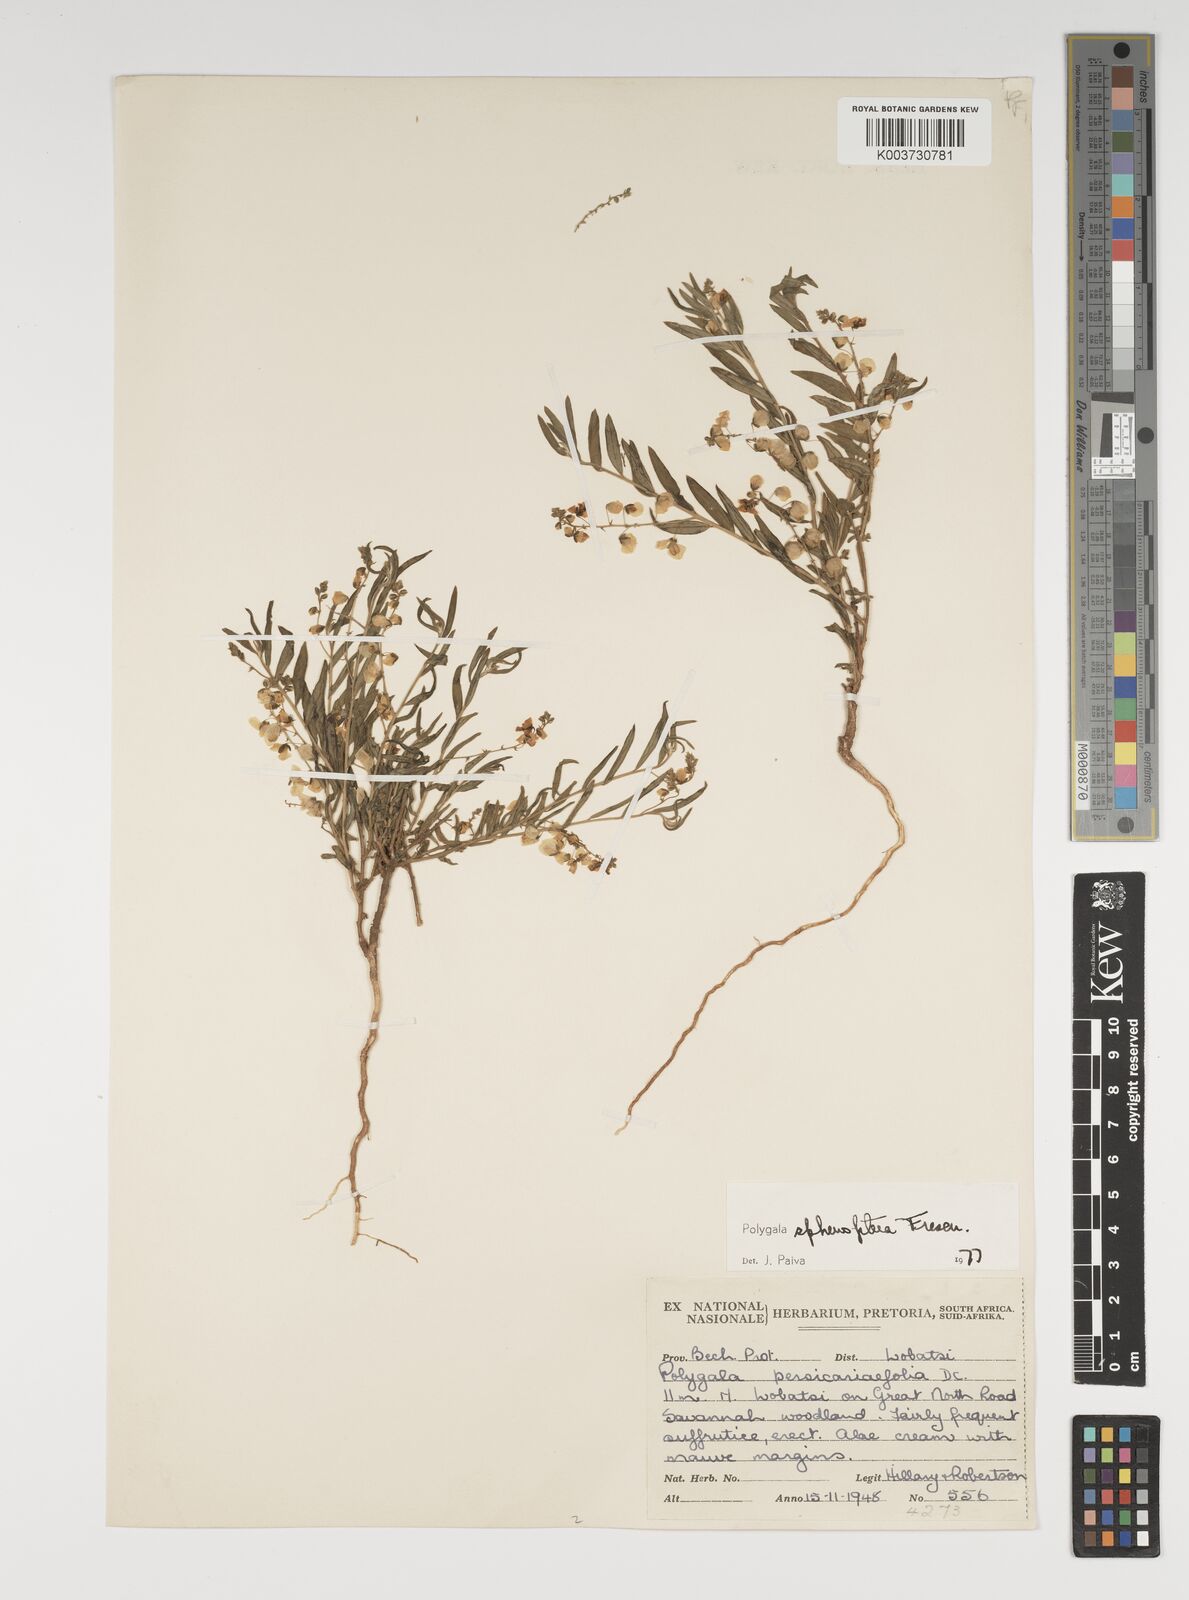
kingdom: Plantae
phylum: Tracheophyta
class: Magnoliopsida
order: Fabales
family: Polygalaceae
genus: Polygala
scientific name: Polygala sphenoptera
